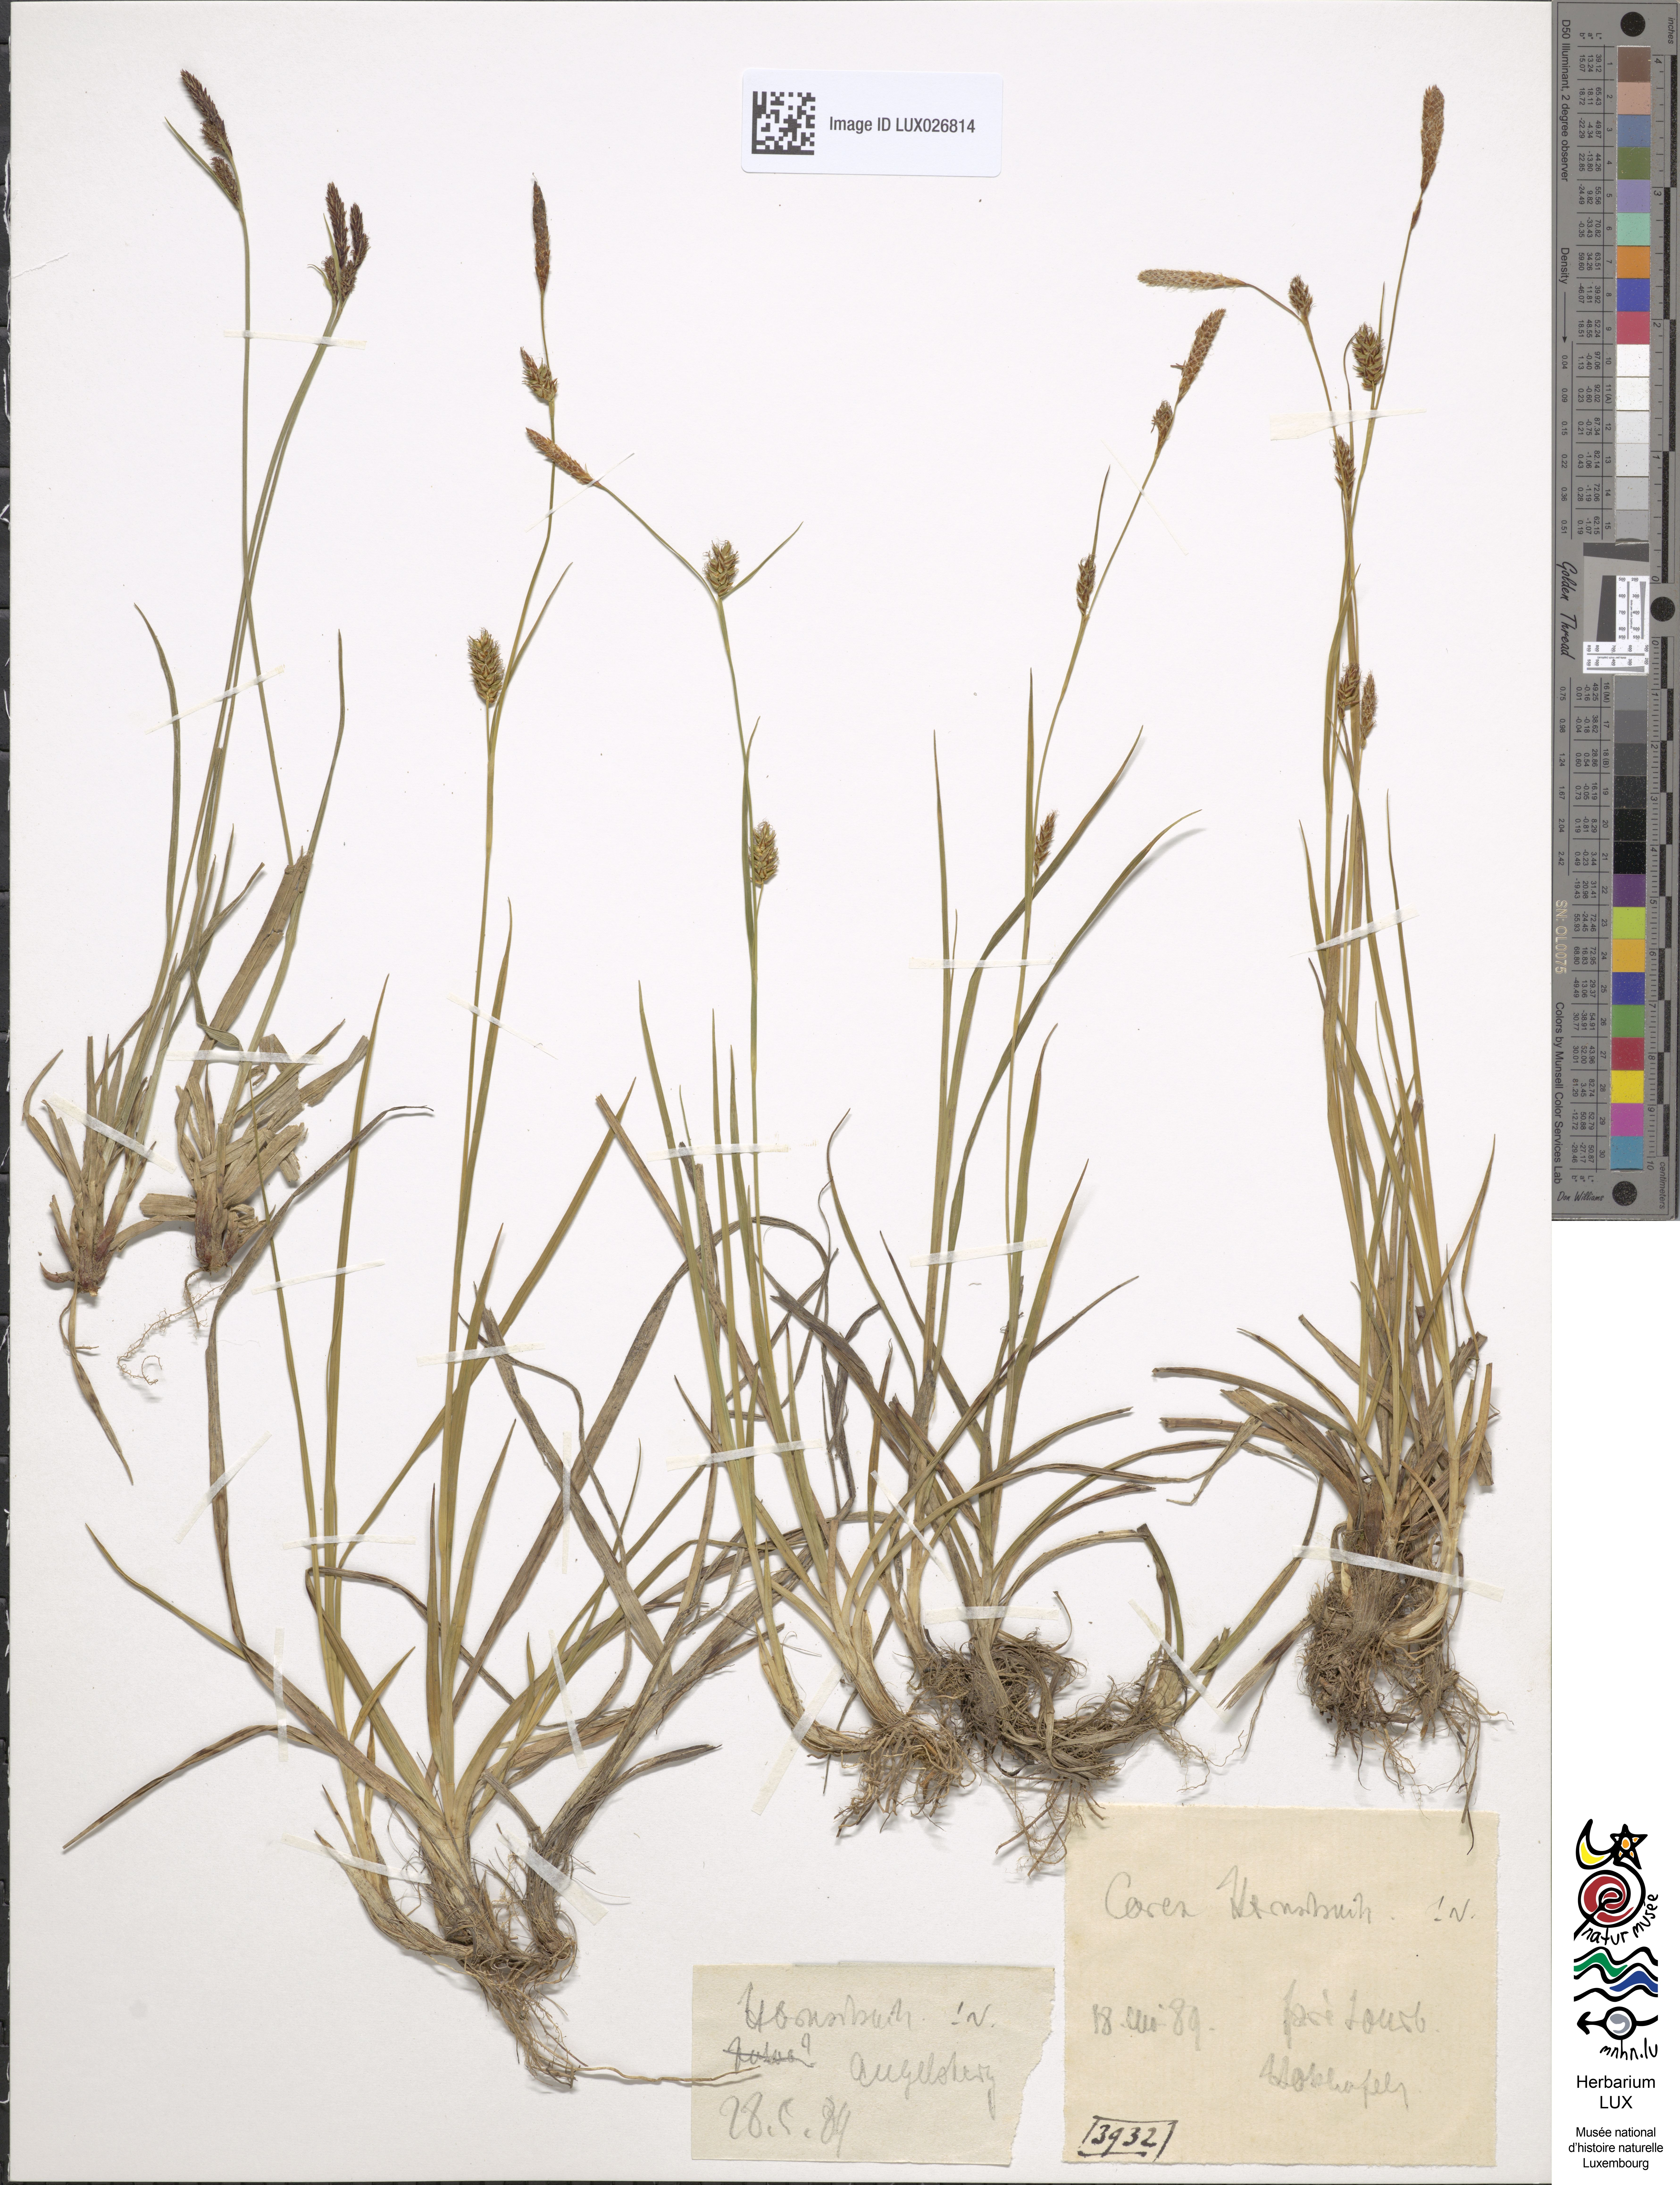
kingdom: Plantae
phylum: Tracheophyta
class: Liliopsida
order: Poales
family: Cyperaceae
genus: Carex
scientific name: Carex hostiana
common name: Tawny sedge
